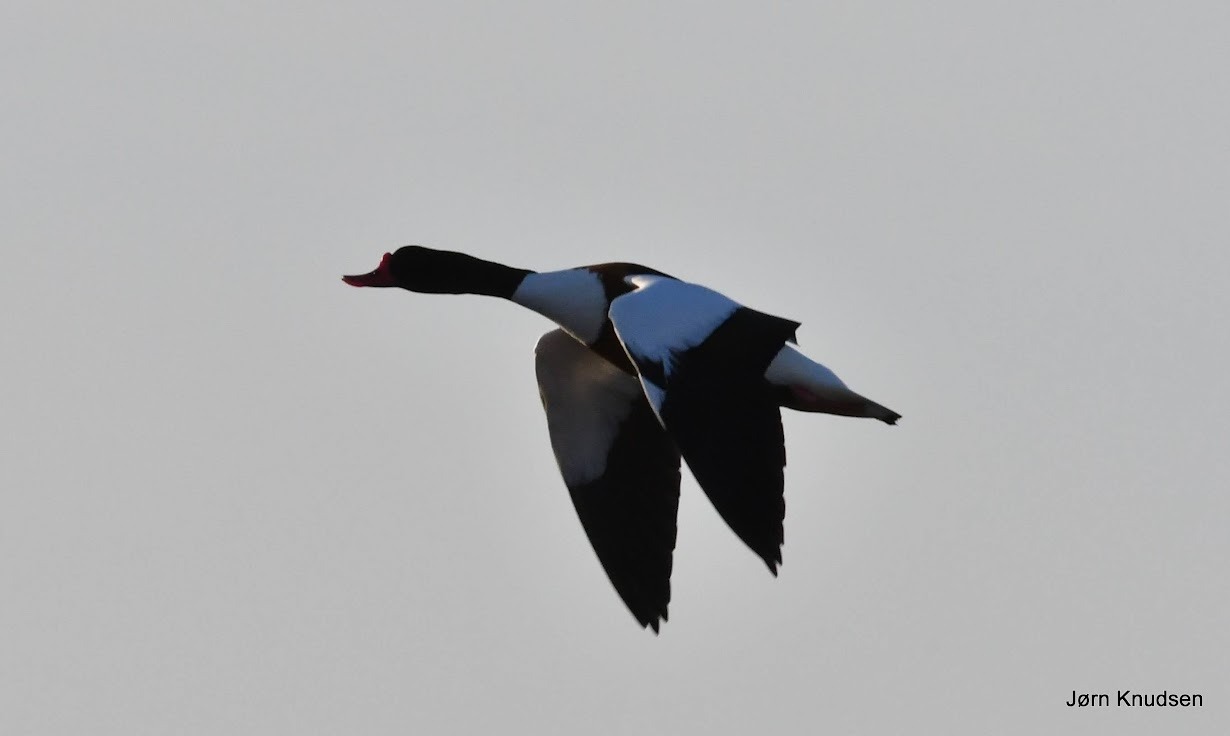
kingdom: Animalia
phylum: Chordata
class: Aves
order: Anseriformes
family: Anatidae
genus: Tadorna
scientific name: Tadorna tadorna
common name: Gravand
